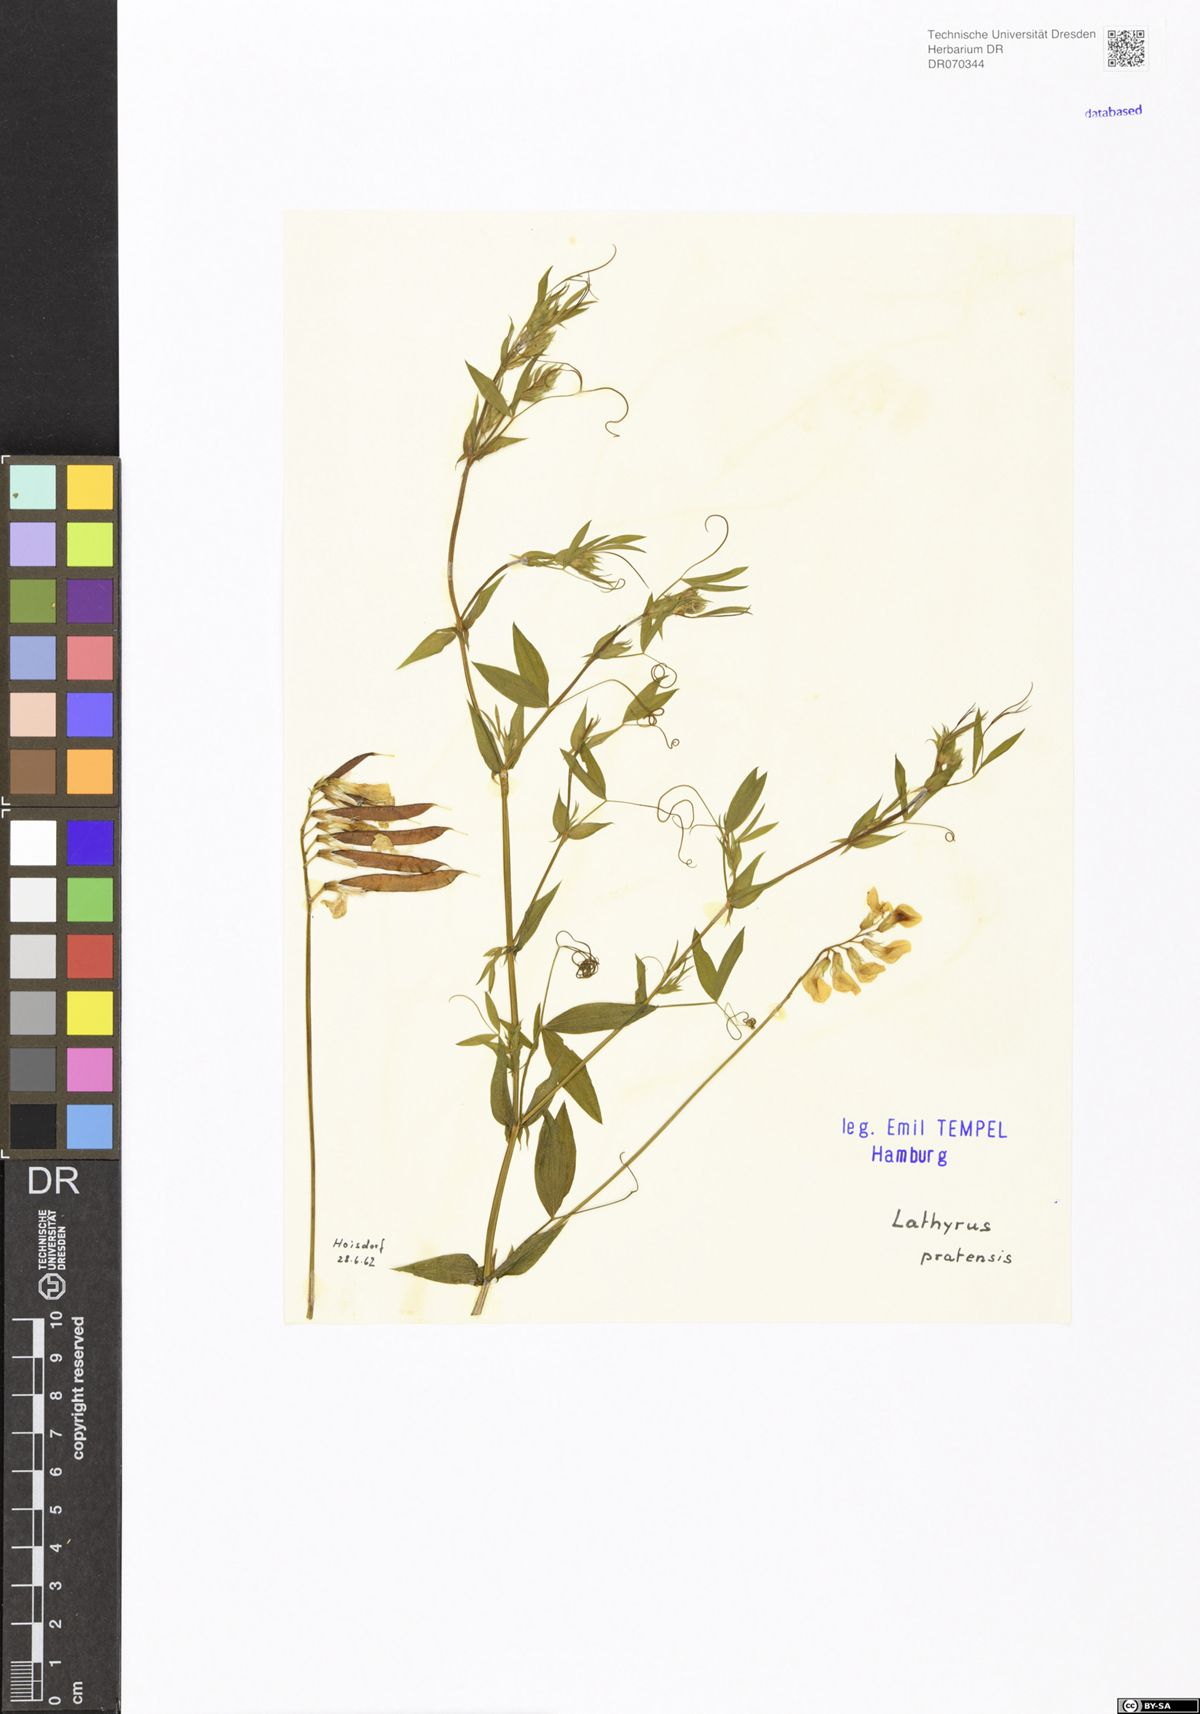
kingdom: Plantae
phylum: Tracheophyta
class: Magnoliopsida
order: Fabales
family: Fabaceae
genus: Lathyrus
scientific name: Lathyrus pratensis
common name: Meadow vetchling
